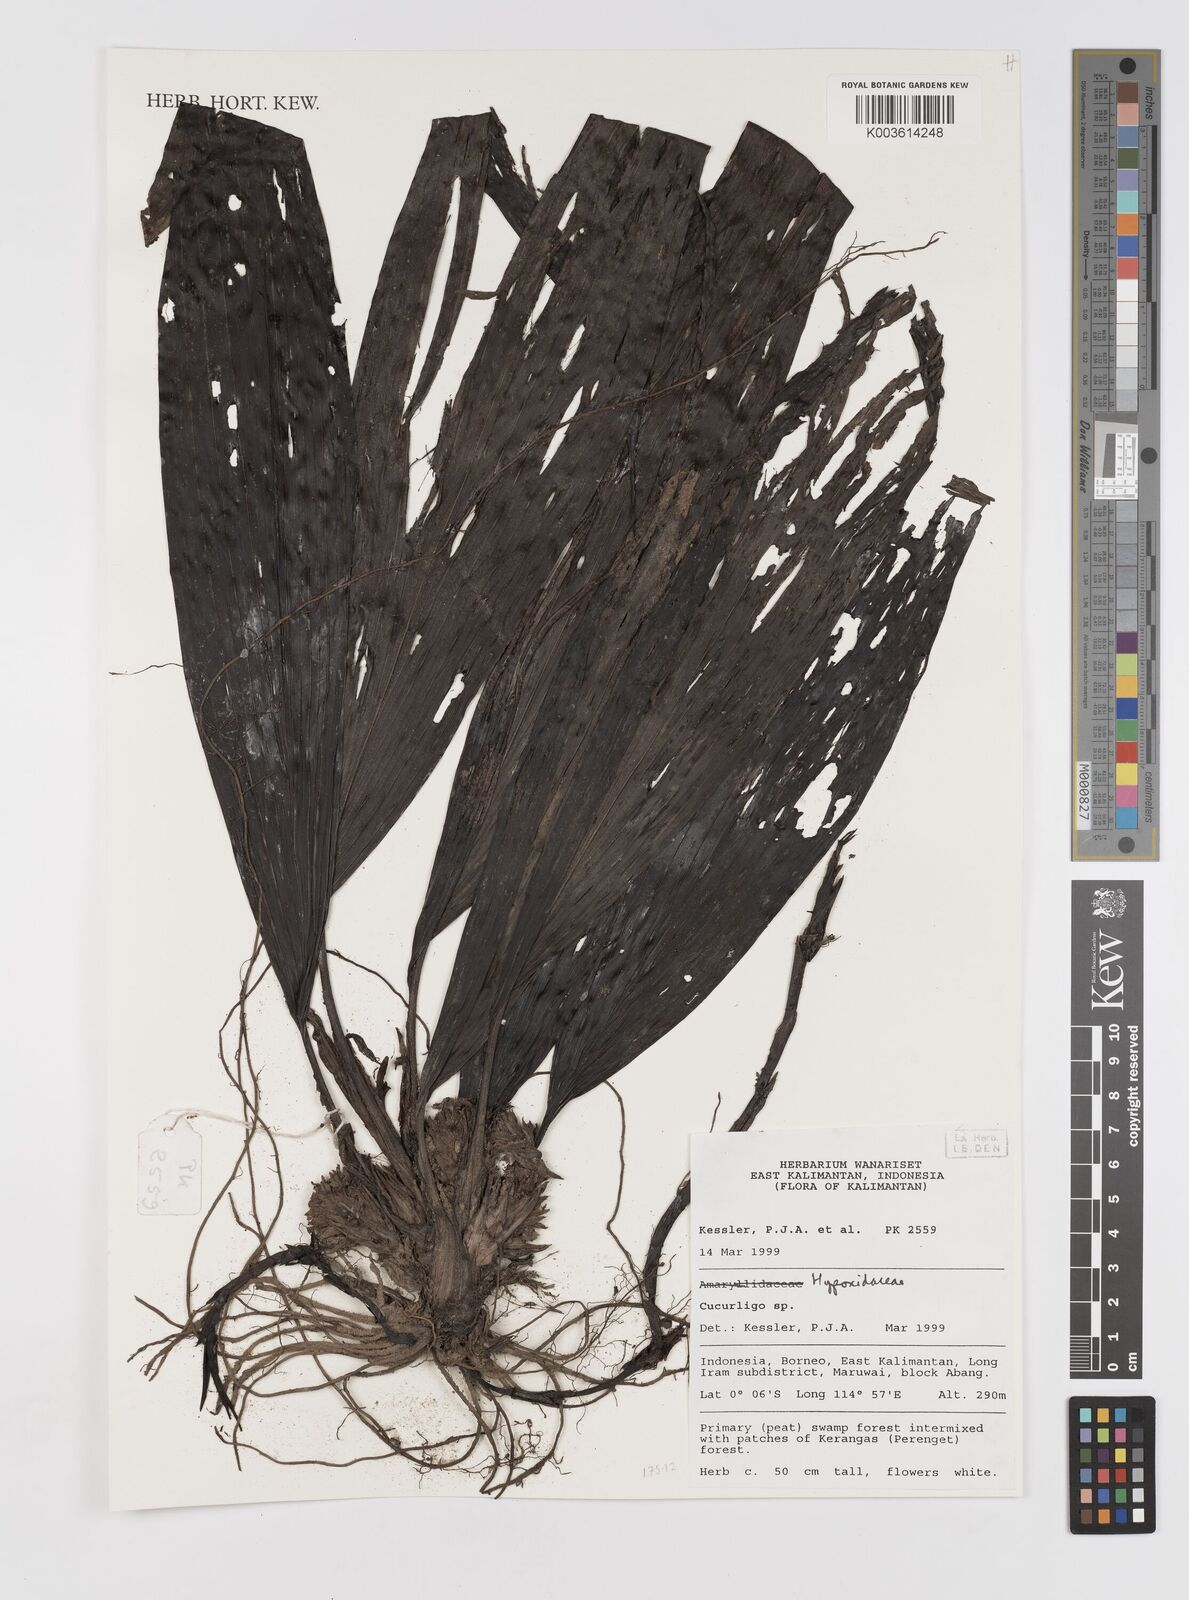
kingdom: Plantae
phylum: Tracheophyta
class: Liliopsida
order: Asparagales
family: Hypoxidaceae
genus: Curculigo
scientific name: Curculigo
